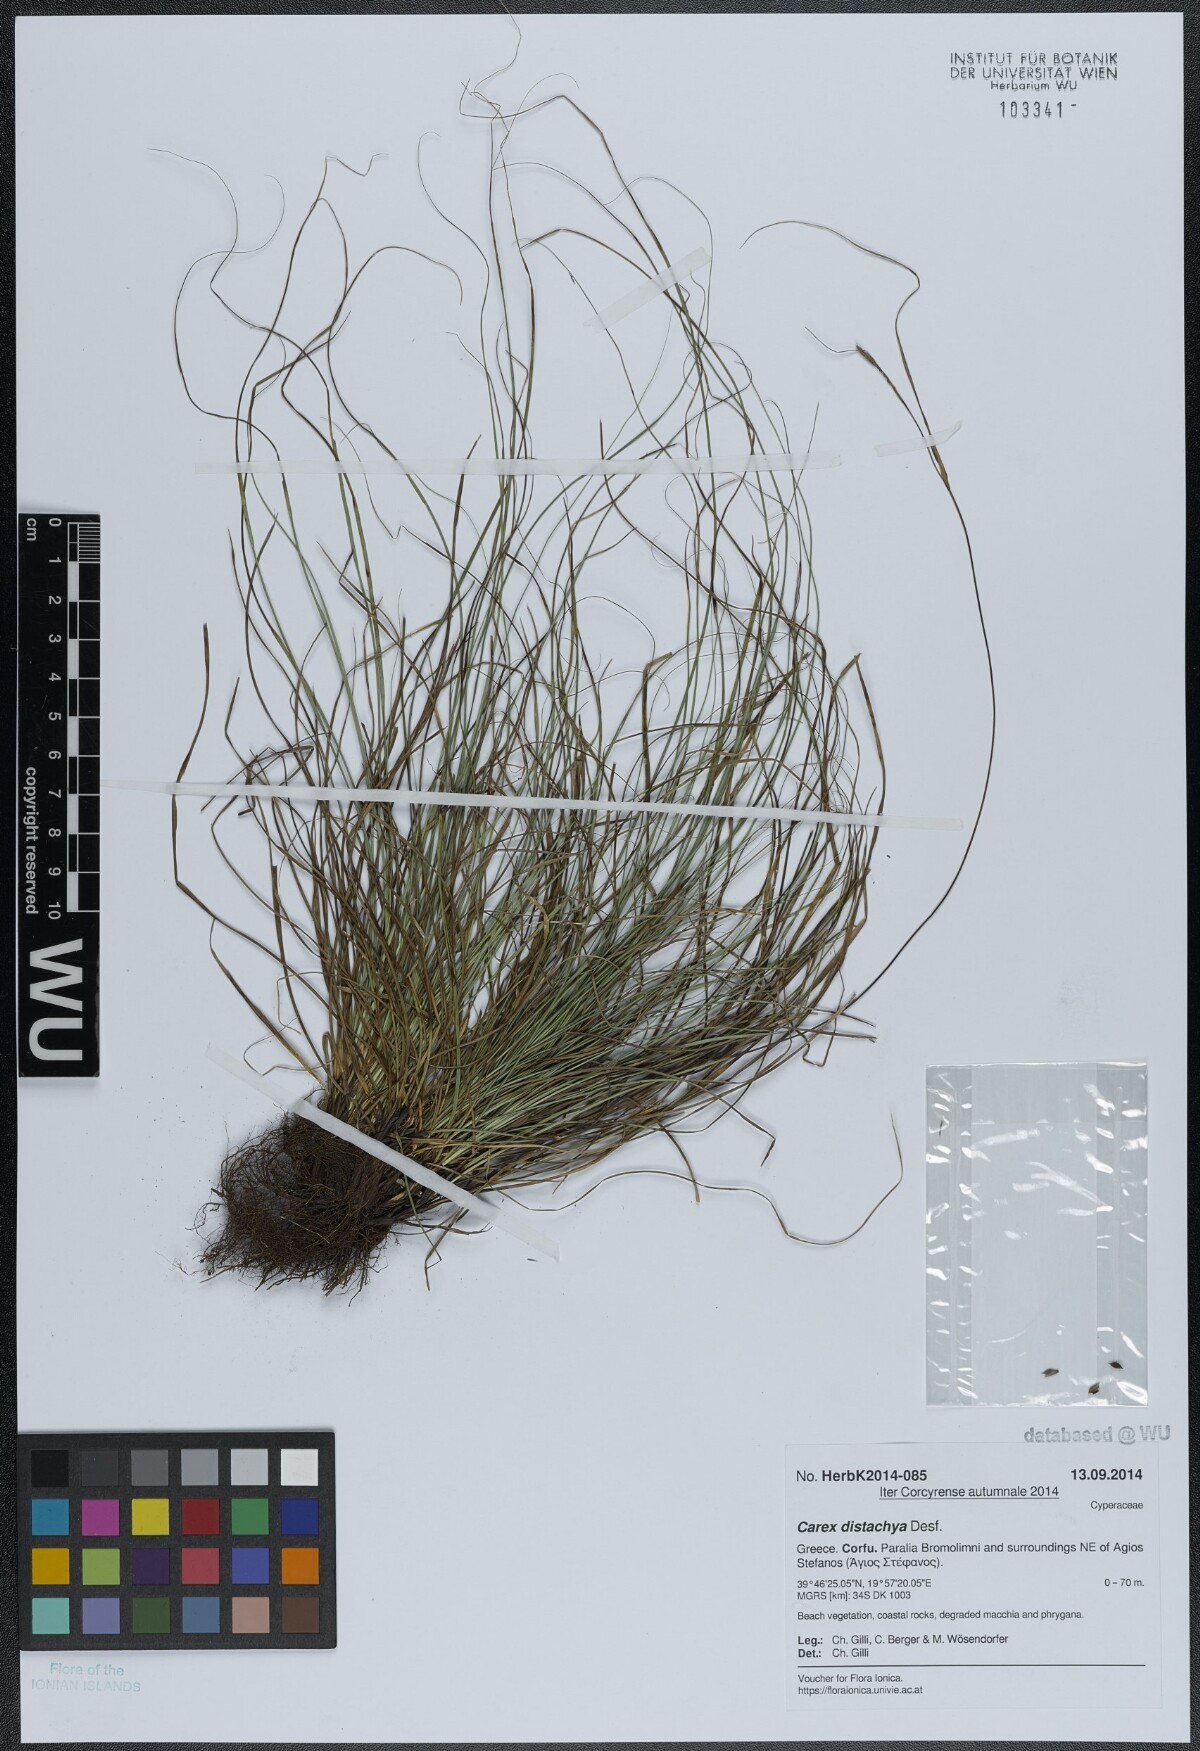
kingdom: Plantae
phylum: Tracheophyta
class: Liliopsida
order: Poales
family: Cyperaceae
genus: Carex
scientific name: Carex distachya
